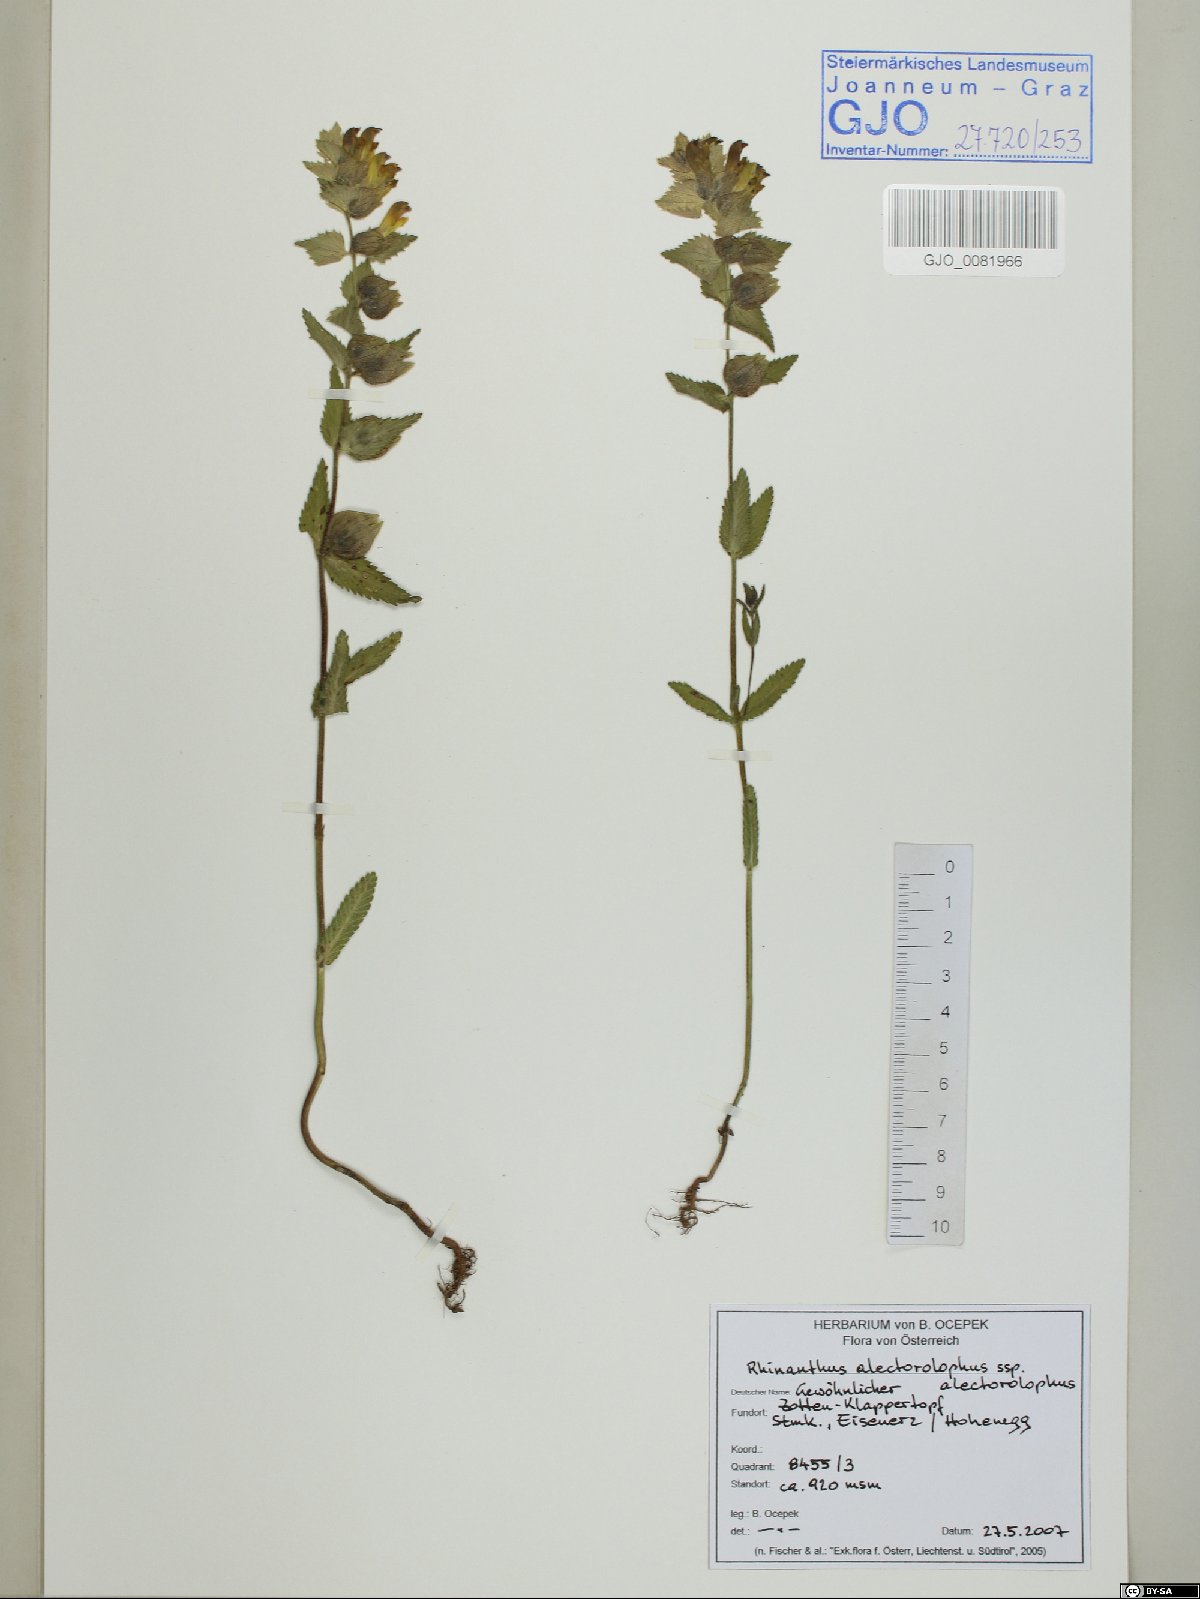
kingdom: Plantae
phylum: Tracheophyta
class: Magnoliopsida
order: Lamiales
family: Orobanchaceae
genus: Rhinanthus
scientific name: Rhinanthus alectorolophus
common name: Greater yellow-rattle
